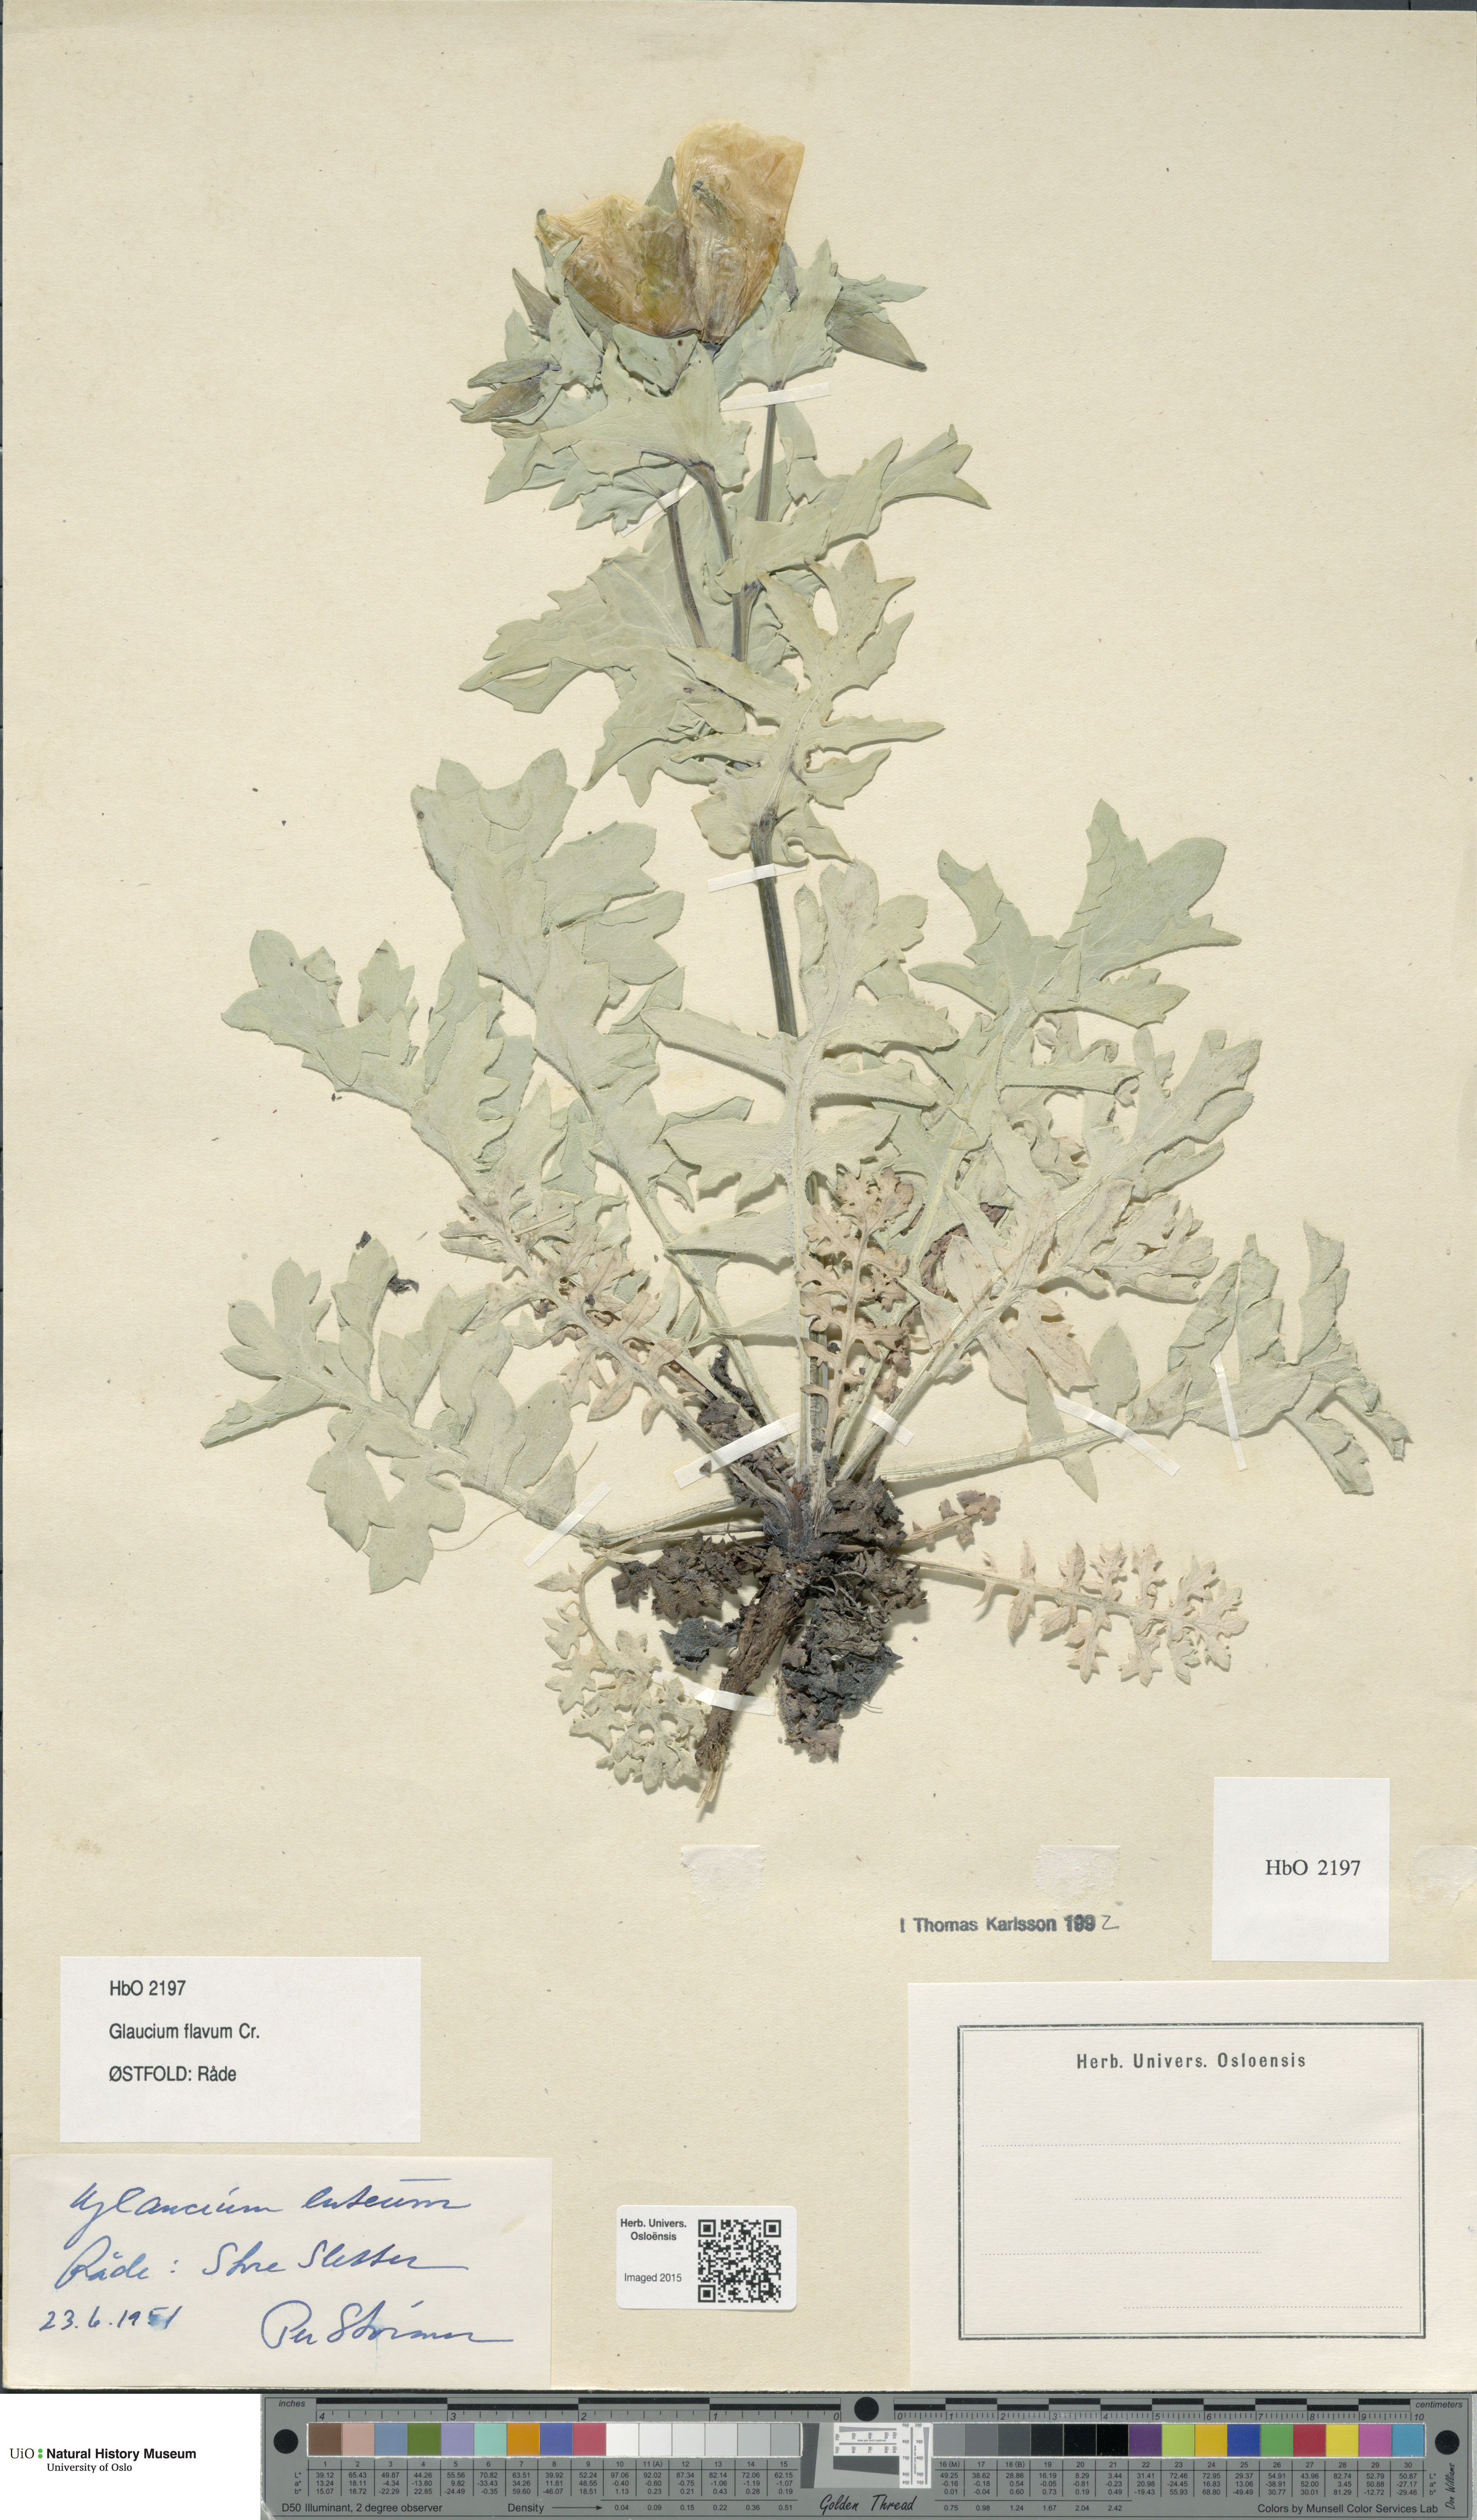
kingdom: Plantae
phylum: Tracheophyta
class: Magnoliopsida
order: Ranunculales
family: Papaveraceae
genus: Glaucium
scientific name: Glaucium flavum
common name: Yellow horned-poppy
